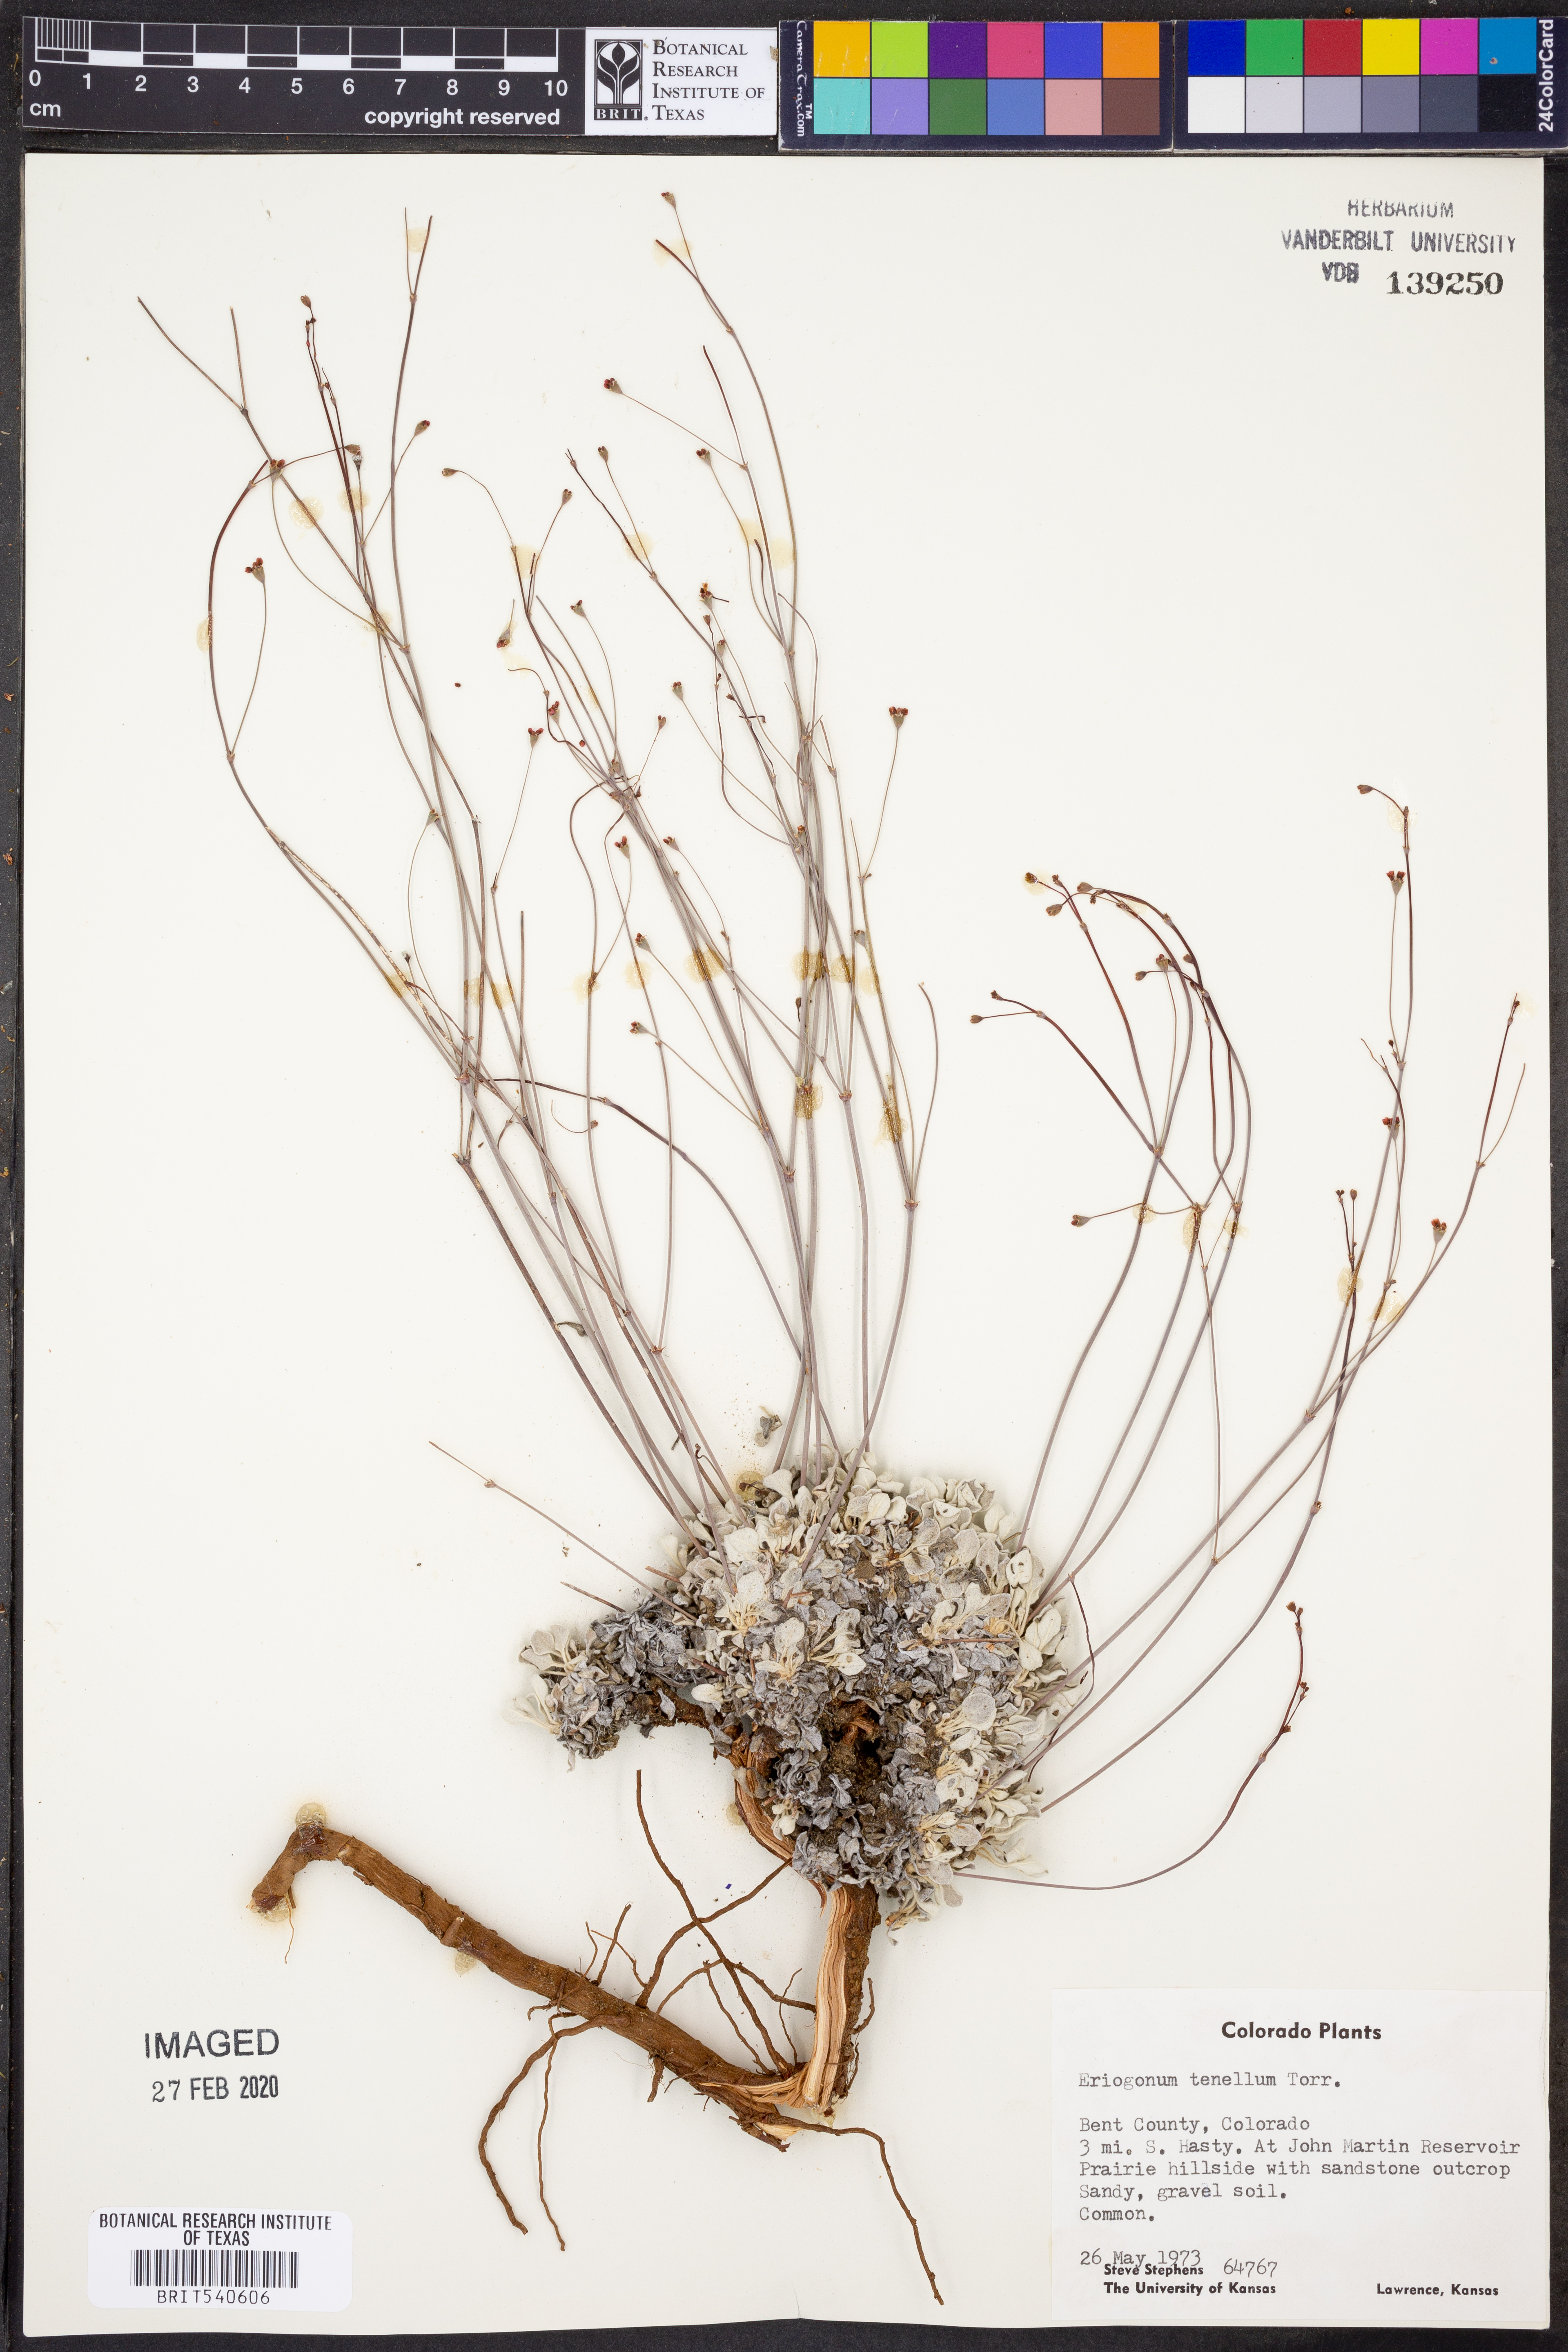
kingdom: Plantae
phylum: Tracheophyta
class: Magnoliopsida
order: Caryophyllales
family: Polygonaceae
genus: Eriogonum
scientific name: Eriogonum tenellum
